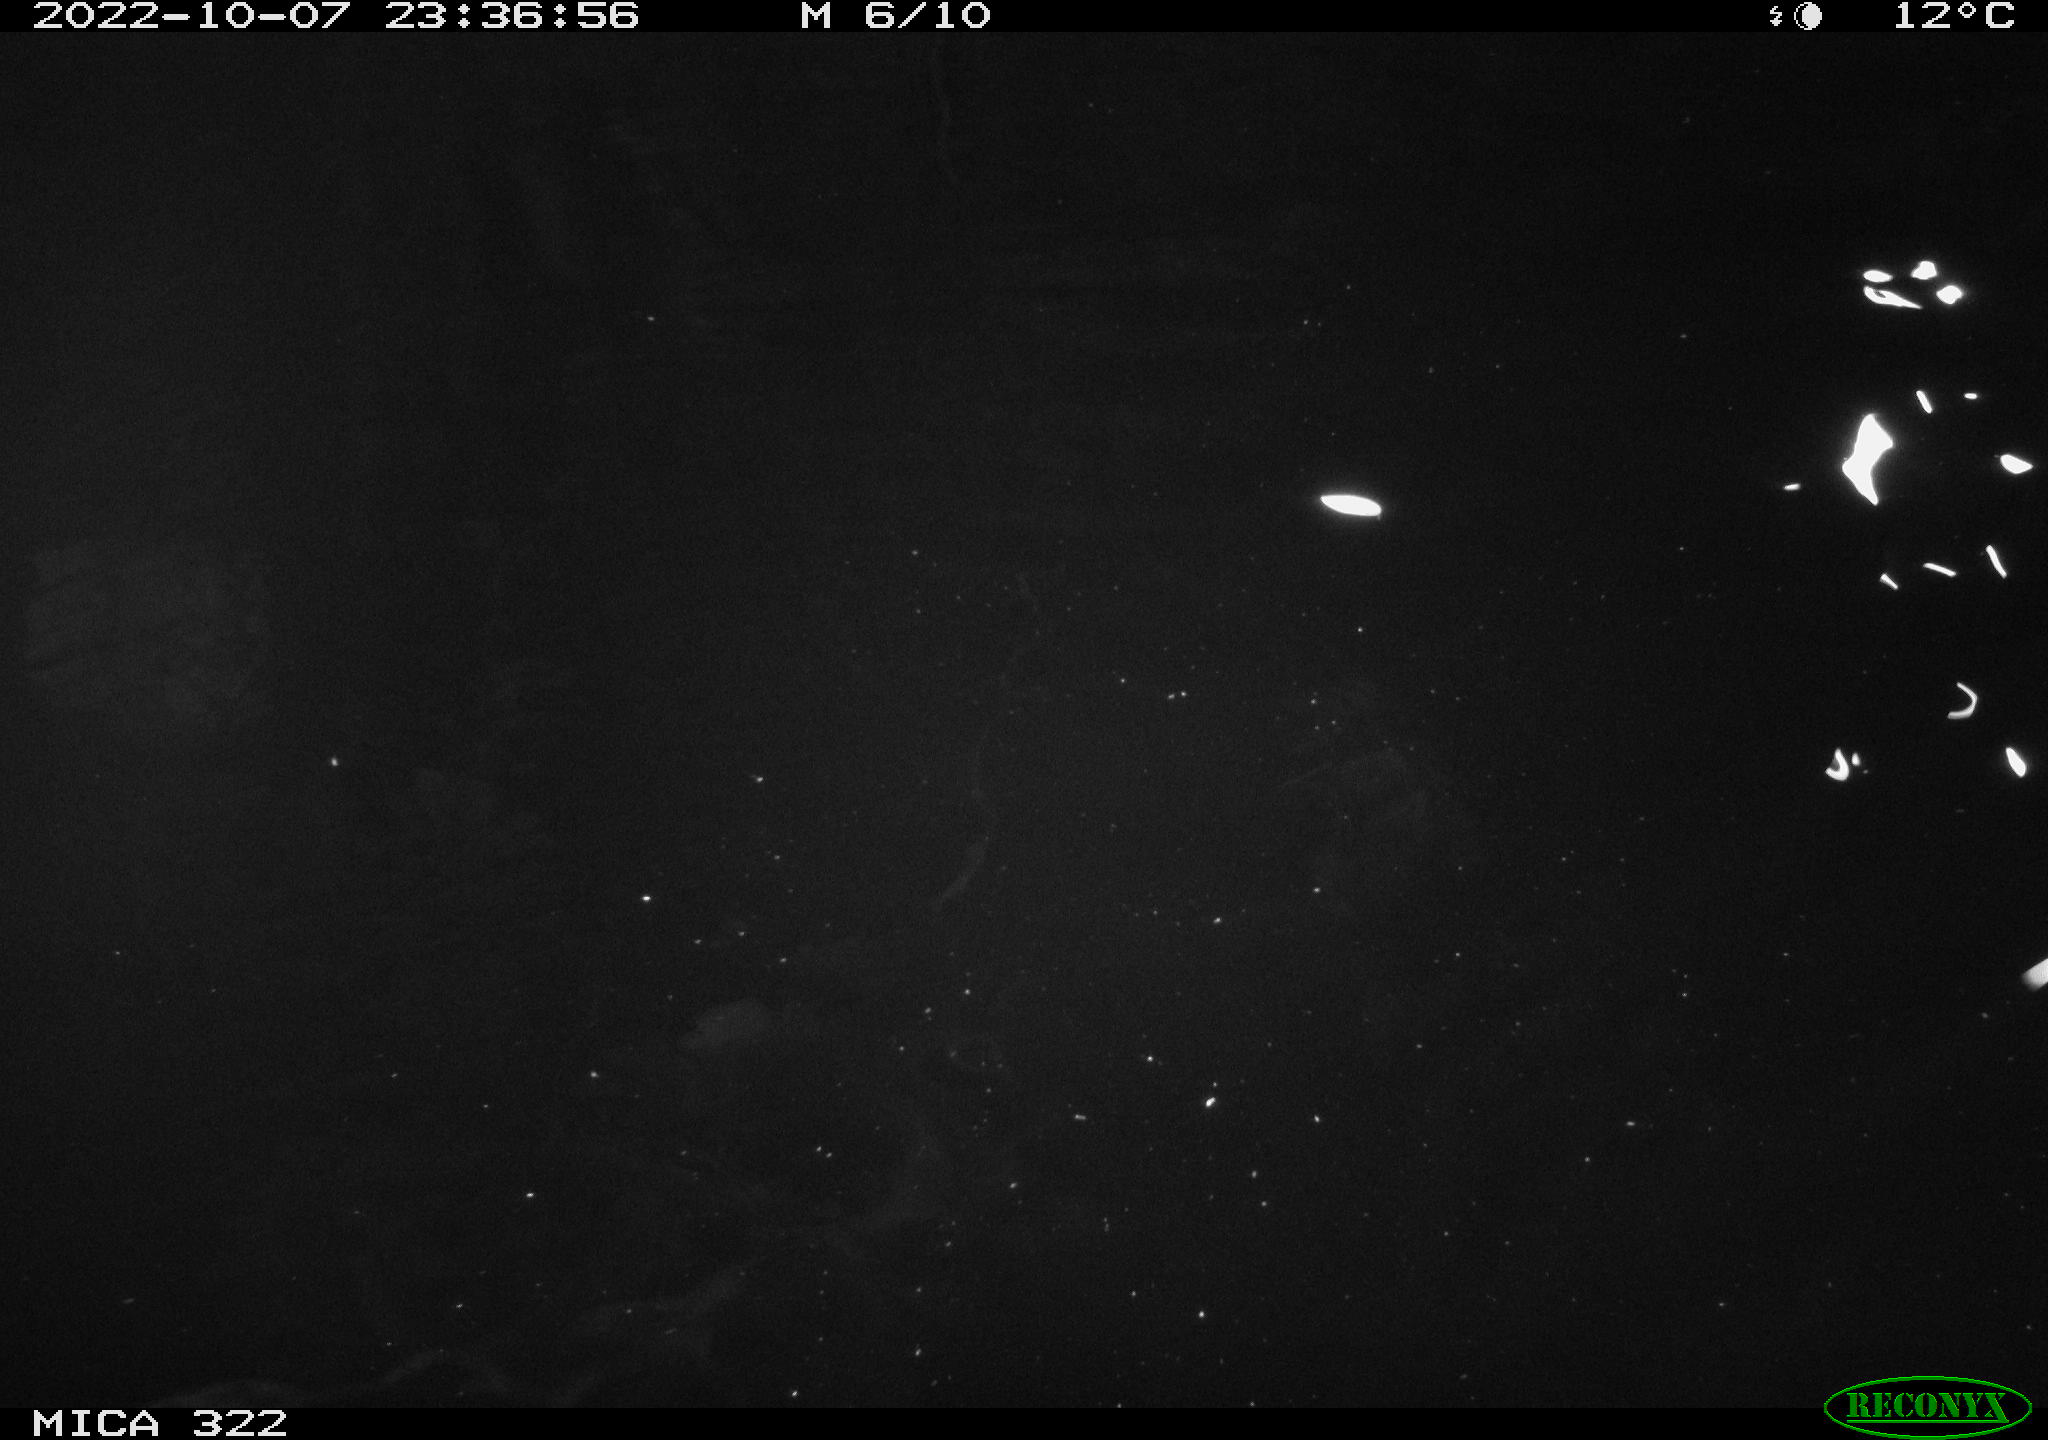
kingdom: Animalia
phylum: Chordata
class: Mammalia
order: Rodentia
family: Muridae
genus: Rattus
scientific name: Rattus norvegicus
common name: Brown rat
